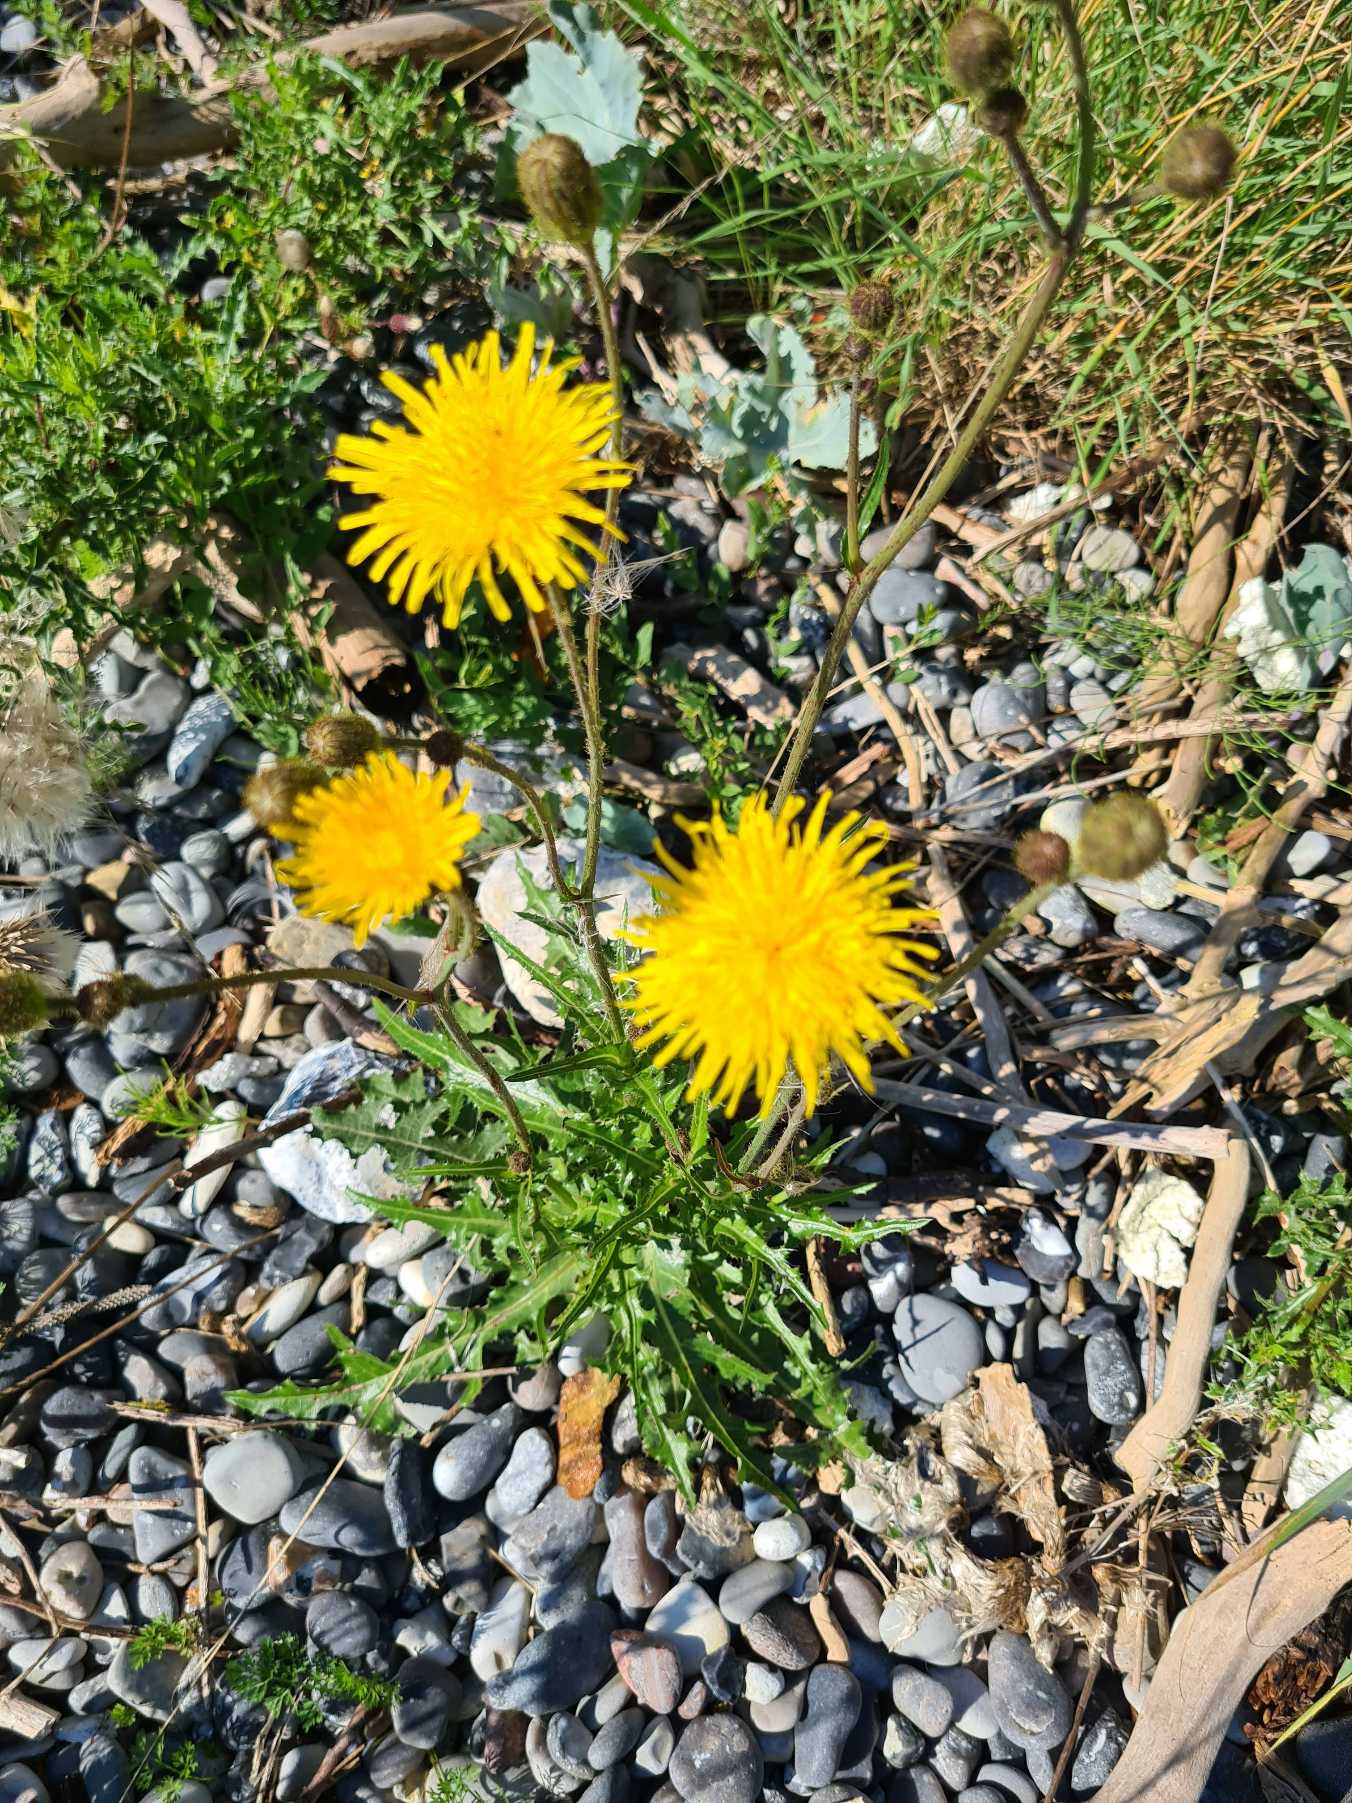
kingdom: Plantae
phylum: Tracheophyta
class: Magnoliopsida
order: Asterales
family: Asteraceae
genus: Sonchus
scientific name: Sonchus arvensis
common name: Ager-svinemælk
